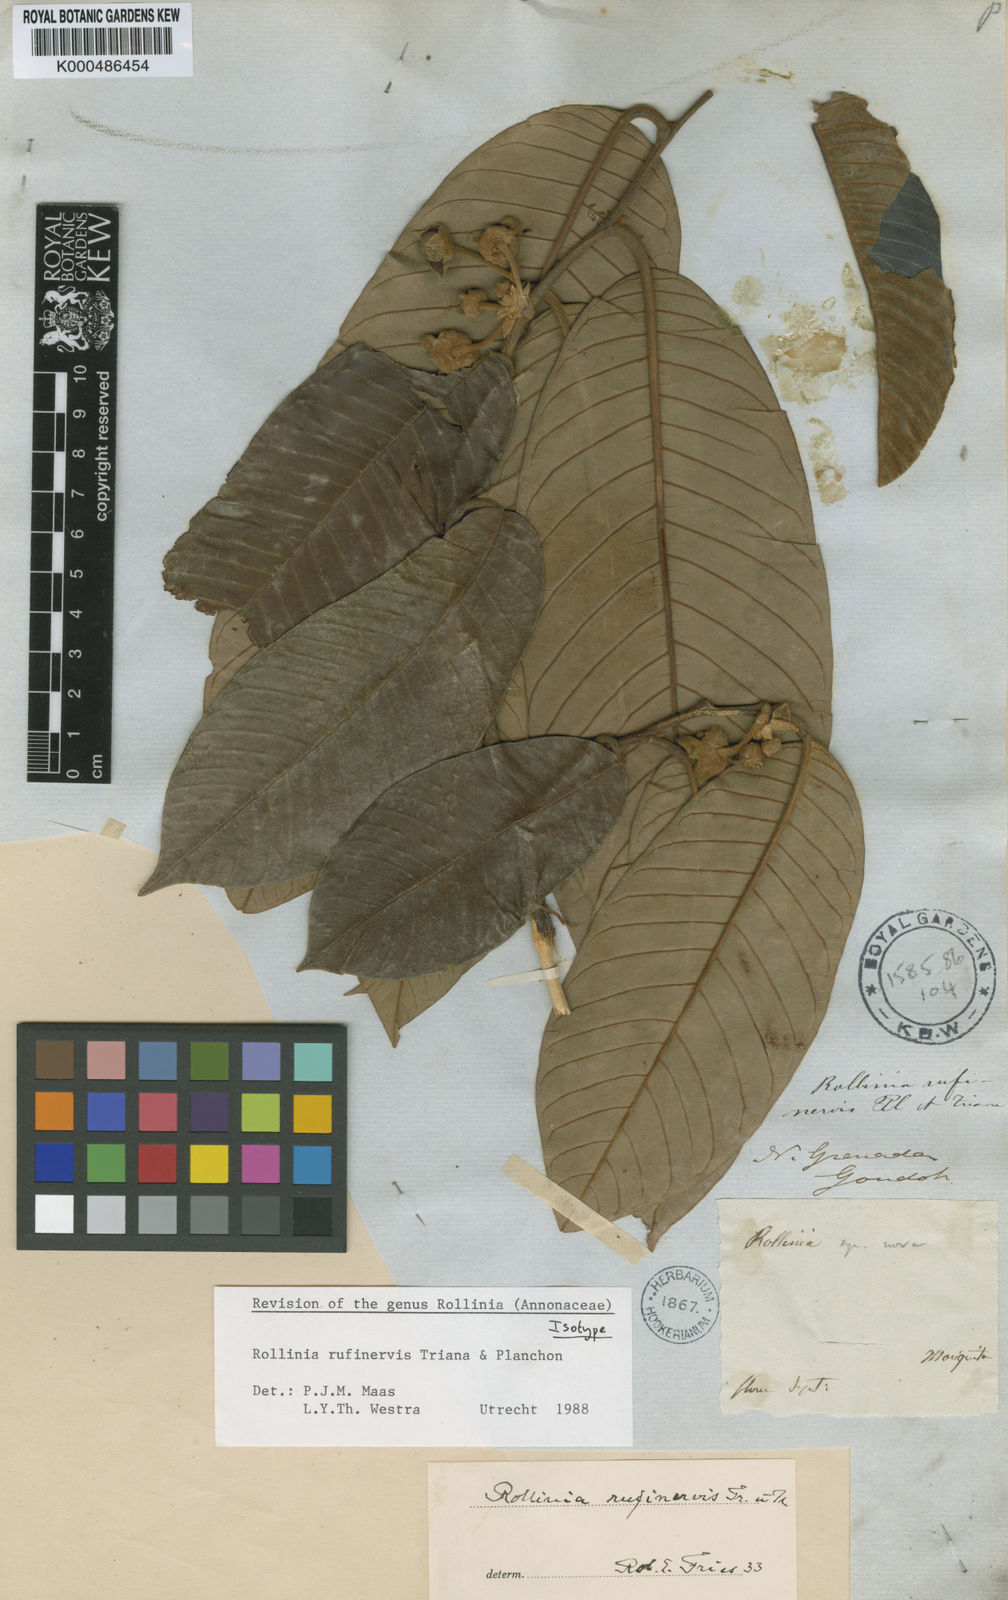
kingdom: Plantae
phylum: Tracheophyta
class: Magnoliopsida
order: Magnoliales
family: Annonaceae
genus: Annona
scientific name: Annona rufinervis
